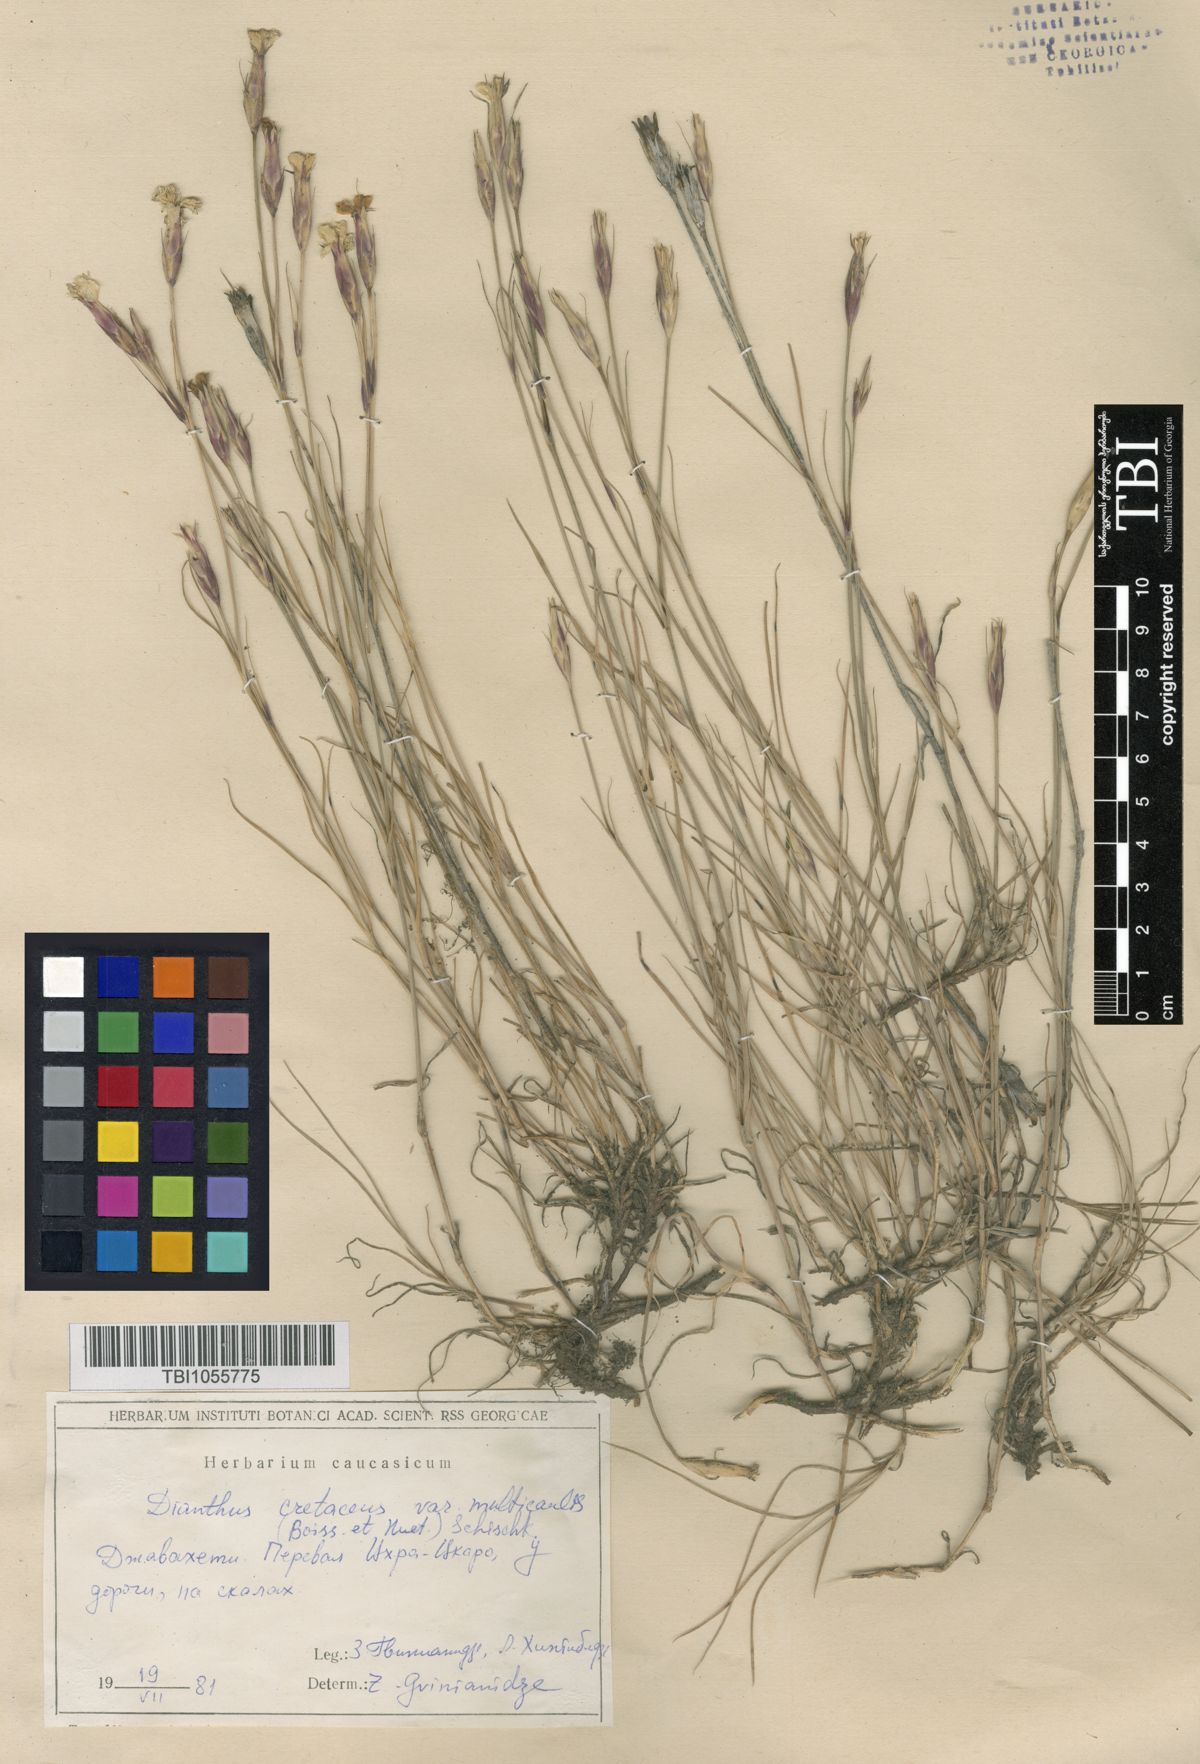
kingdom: Plantae
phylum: Tracheophyta
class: Magnoliopsida
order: Caryophyllales
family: Caryophyllaceae
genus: Dianthus
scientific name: Dianthus cretaceus
